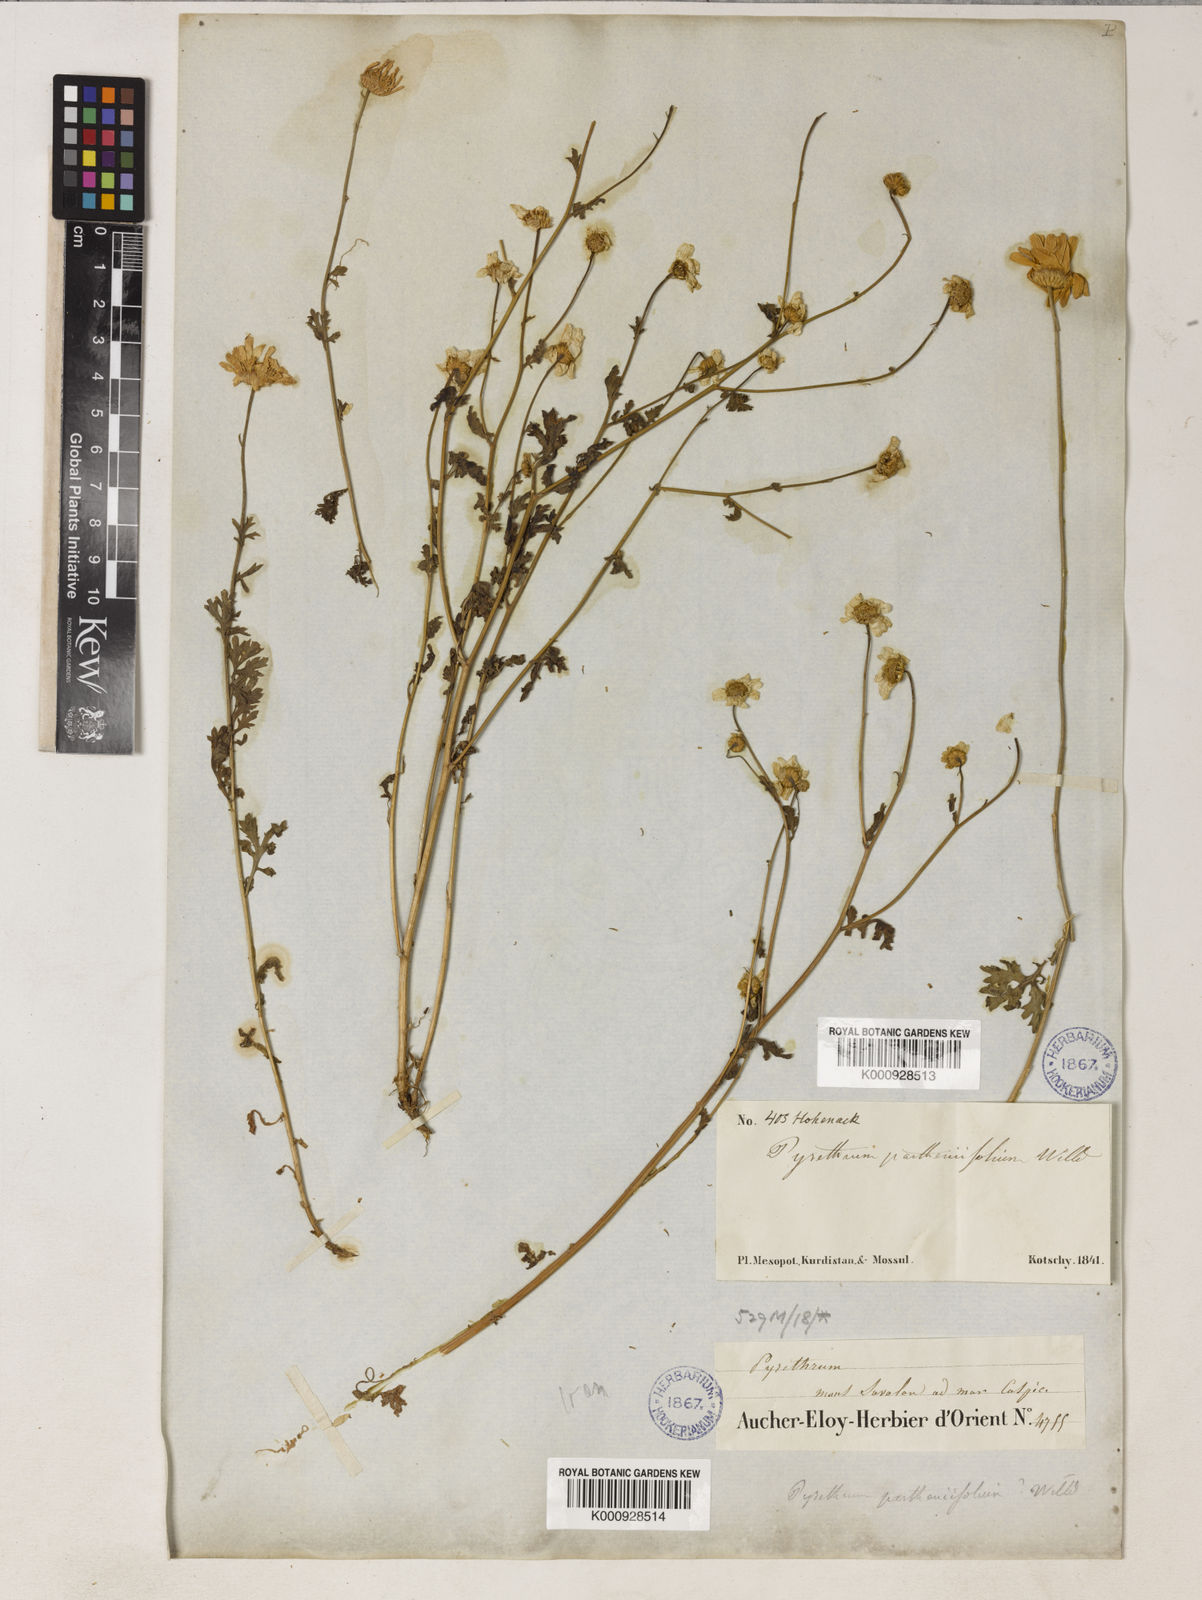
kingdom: Plantae
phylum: Tracheophyta
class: Magnoliopsida
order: Asterales
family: Asteraceae
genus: Tanacetum
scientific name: Tanacetum
